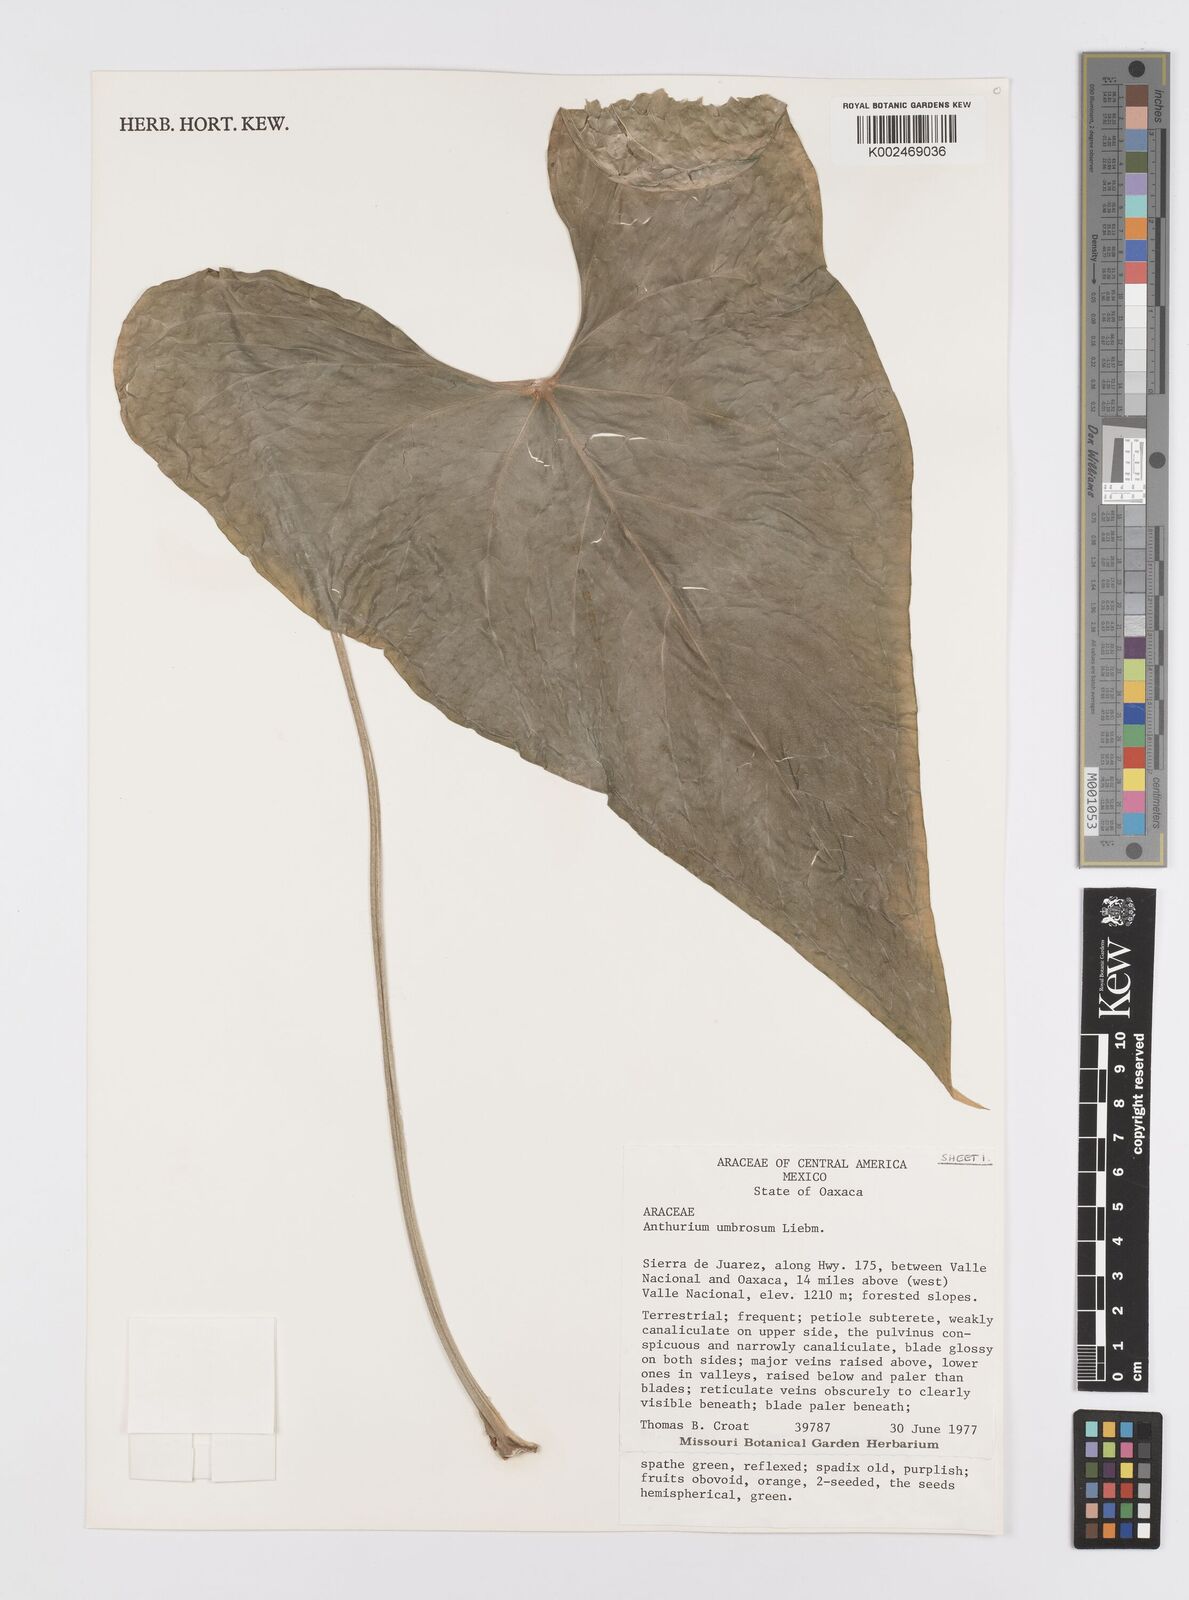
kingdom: Plantae
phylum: Tracheophyta
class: Liliopsida
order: Alismatales
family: Araceae
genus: Anthurium
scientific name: Anthurium umbrosum
